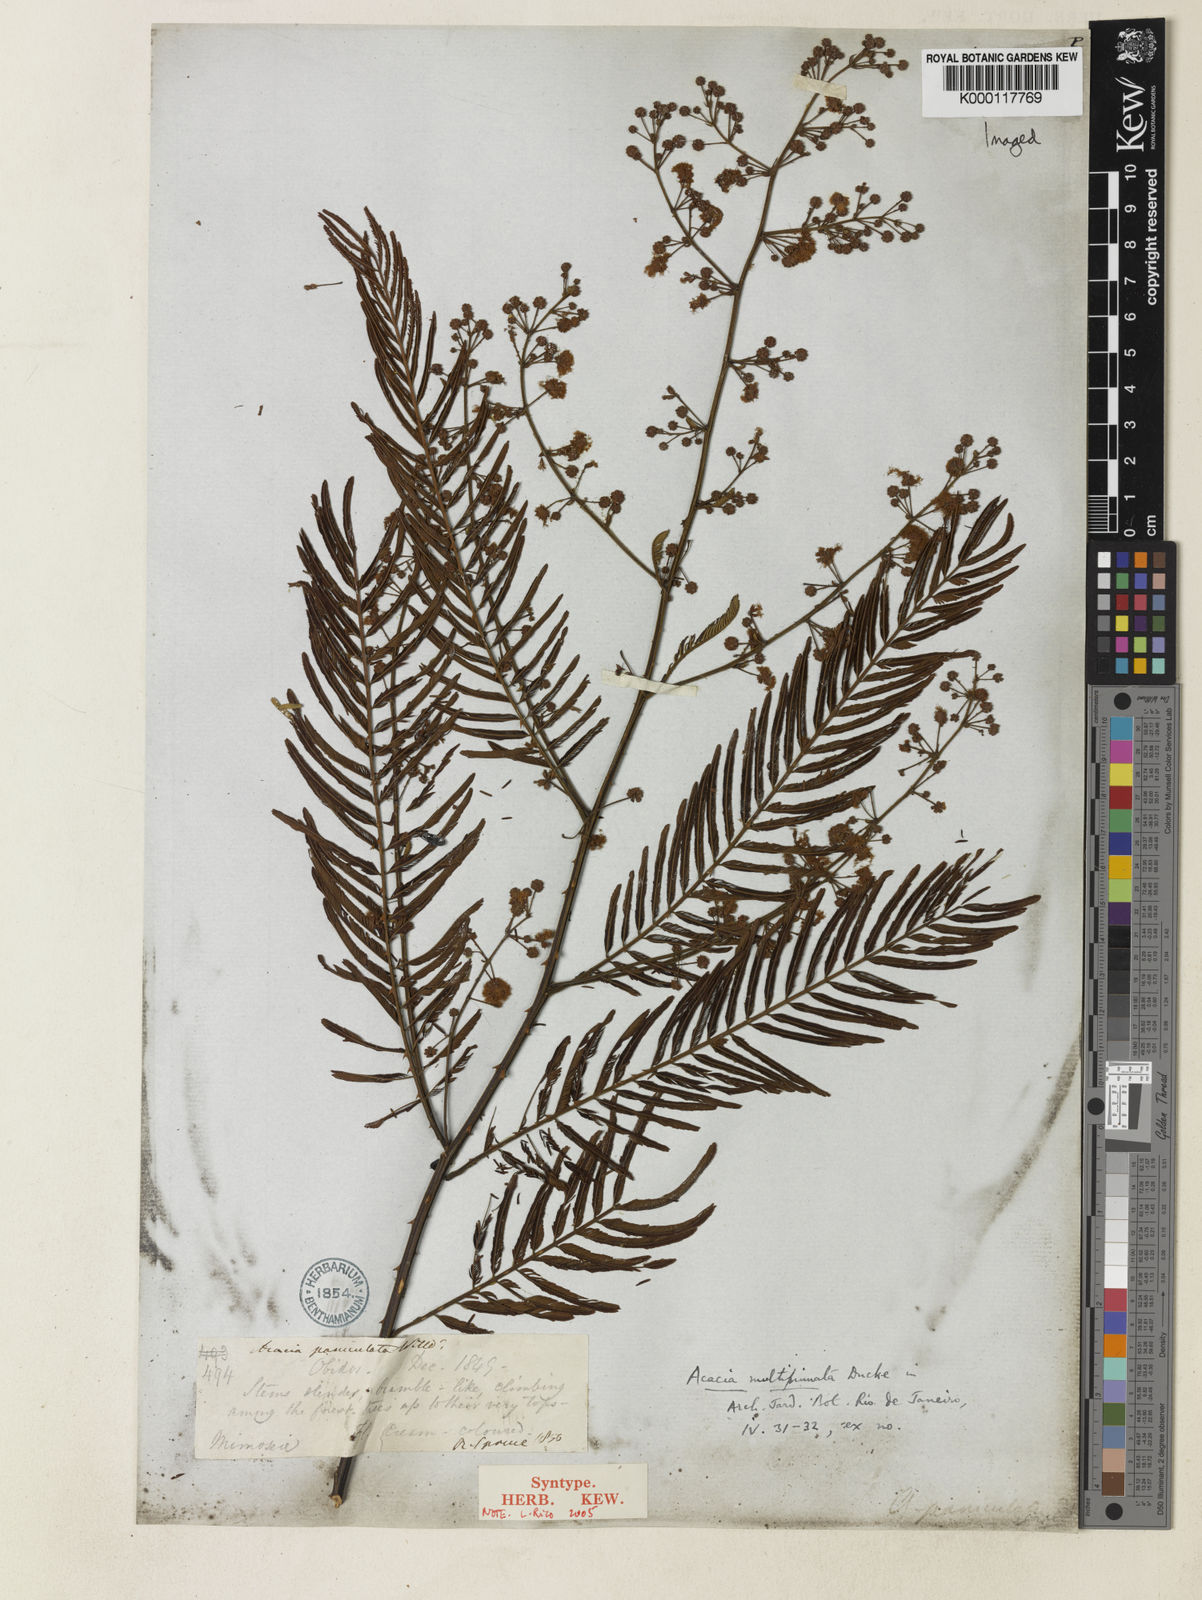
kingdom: Plantae
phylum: Tracheophyta
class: Magnoliopsida
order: Fabales
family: Fabaceae
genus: Senegalia
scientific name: Senegalia paniculata
